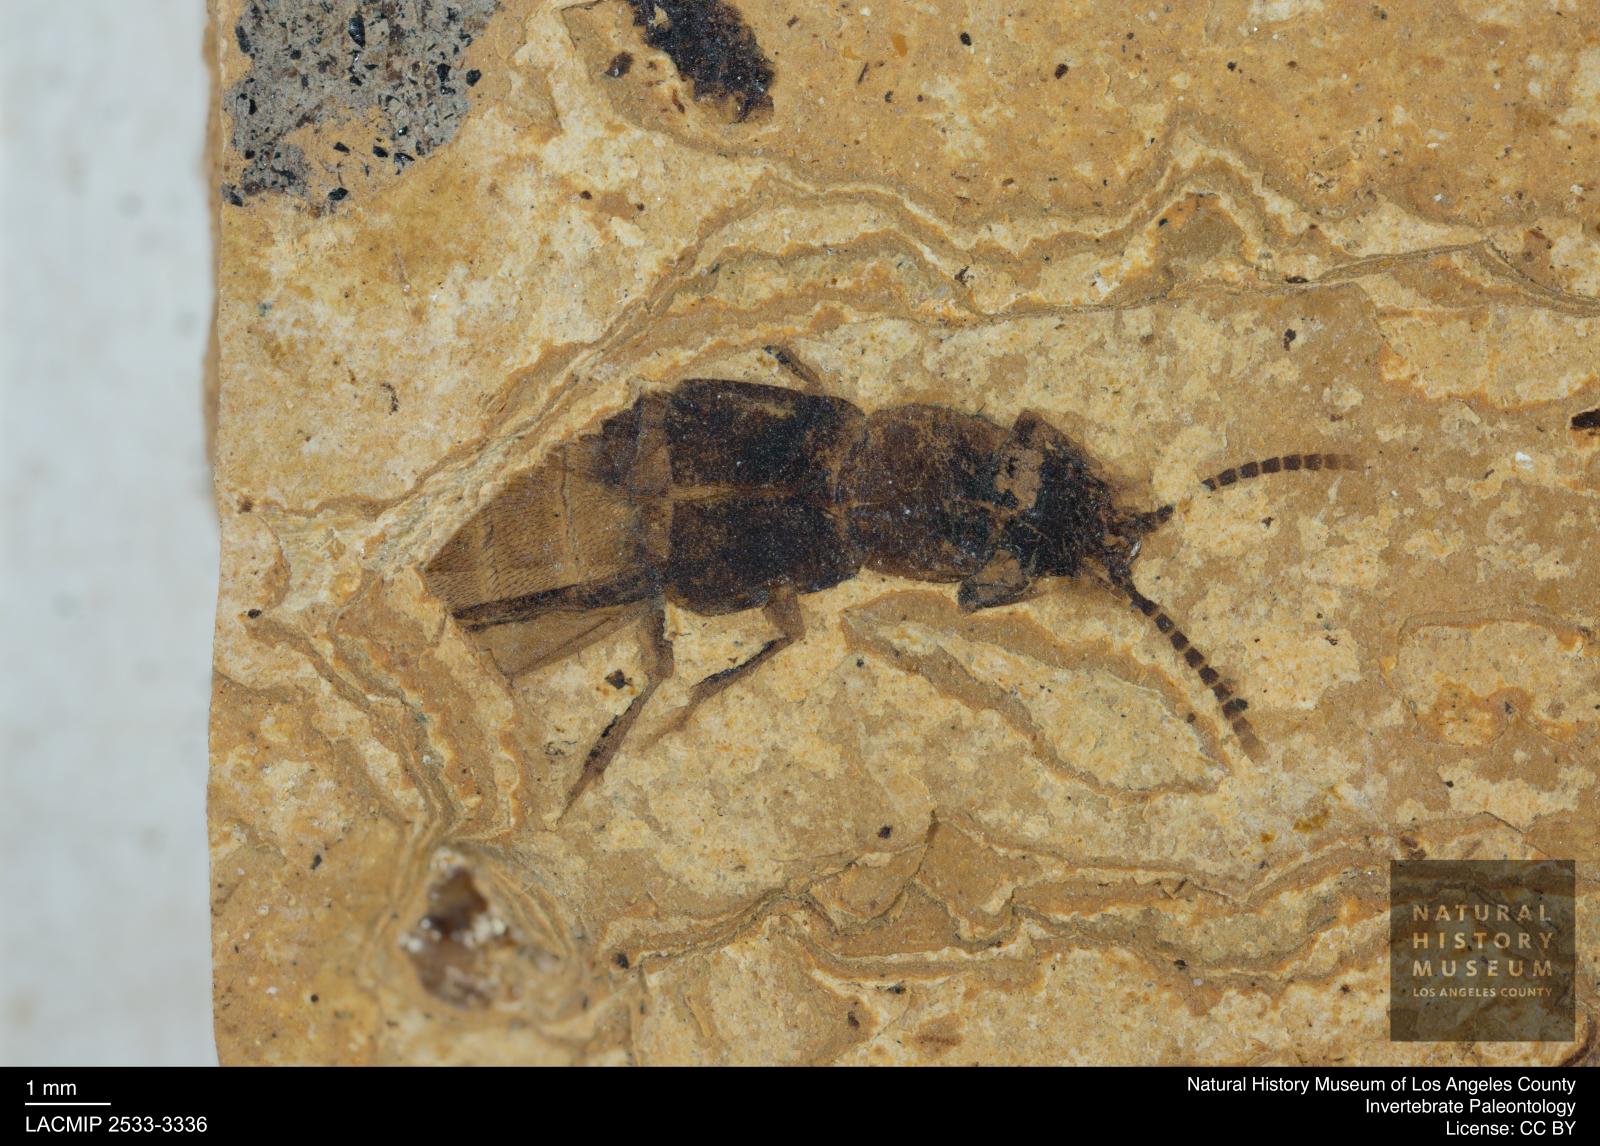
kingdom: Animalia
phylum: Arthropoda
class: Insecta
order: Coleoptera
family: Staphylinidae
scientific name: Staphylinidae
